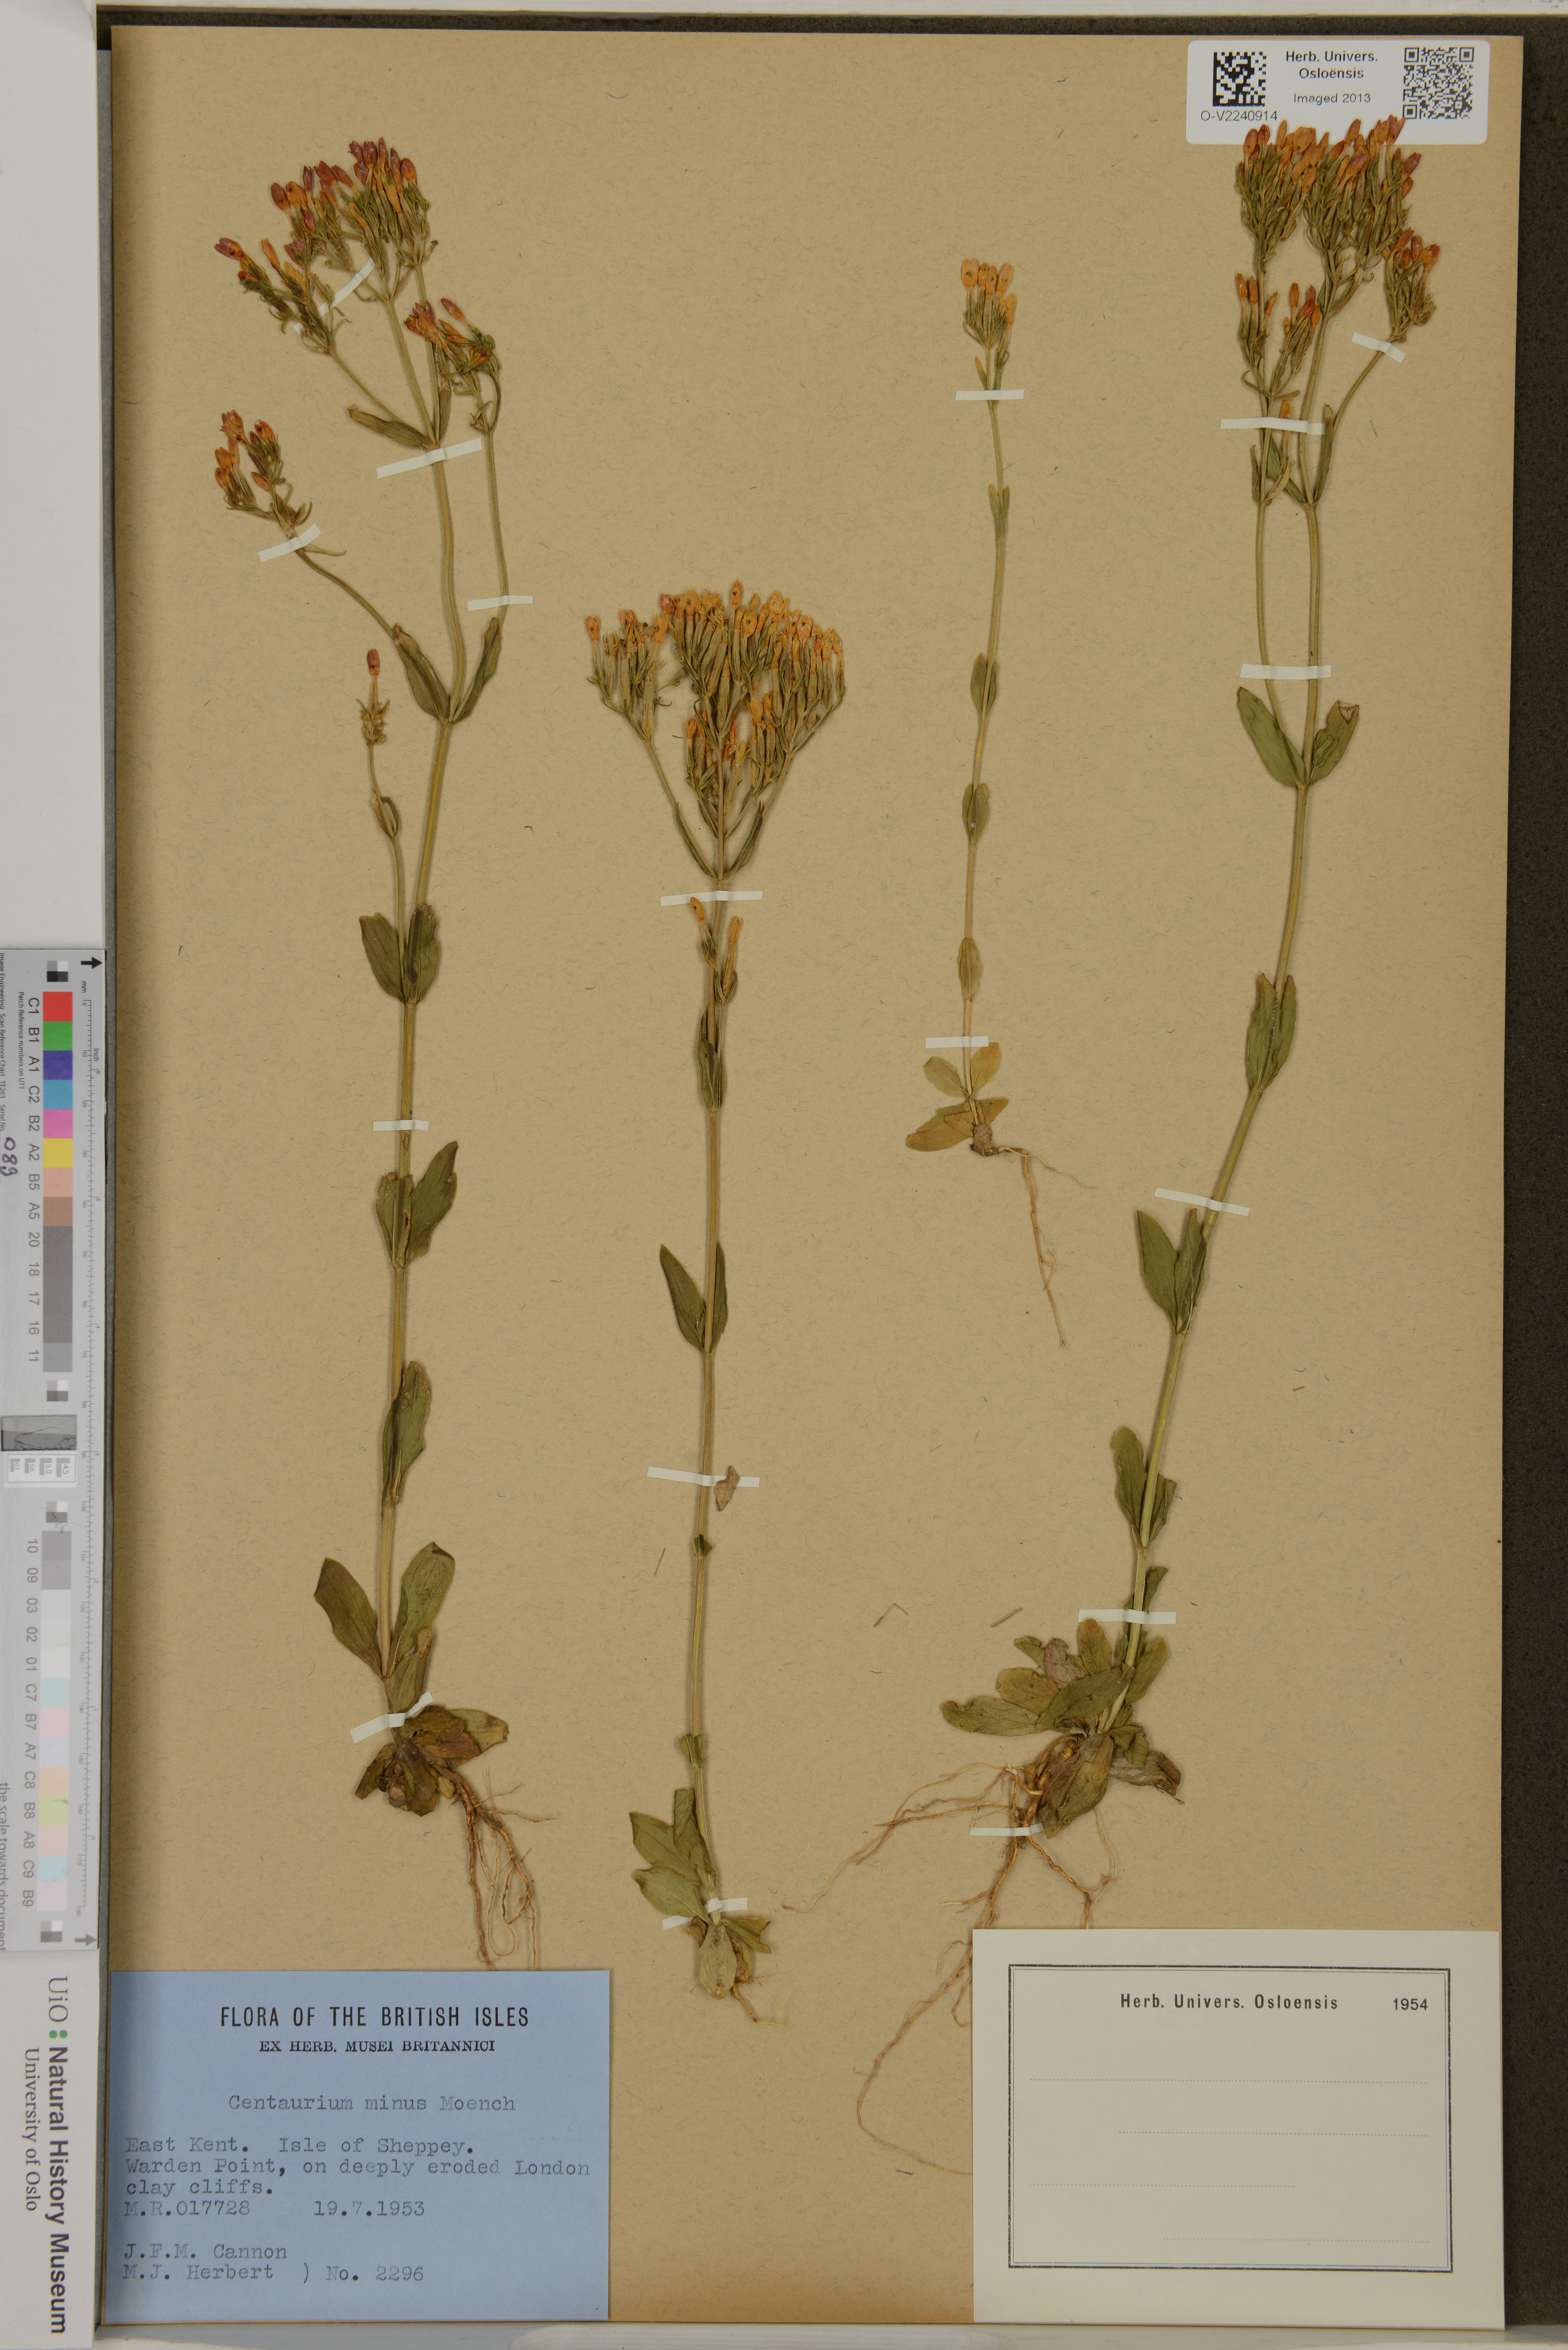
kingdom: Plantae
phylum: Tracheophyta
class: Magnoliopsida
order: Gentianales
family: Gentianaceae
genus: Centaurium
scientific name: Centaurium erythraea
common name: Common centaury
